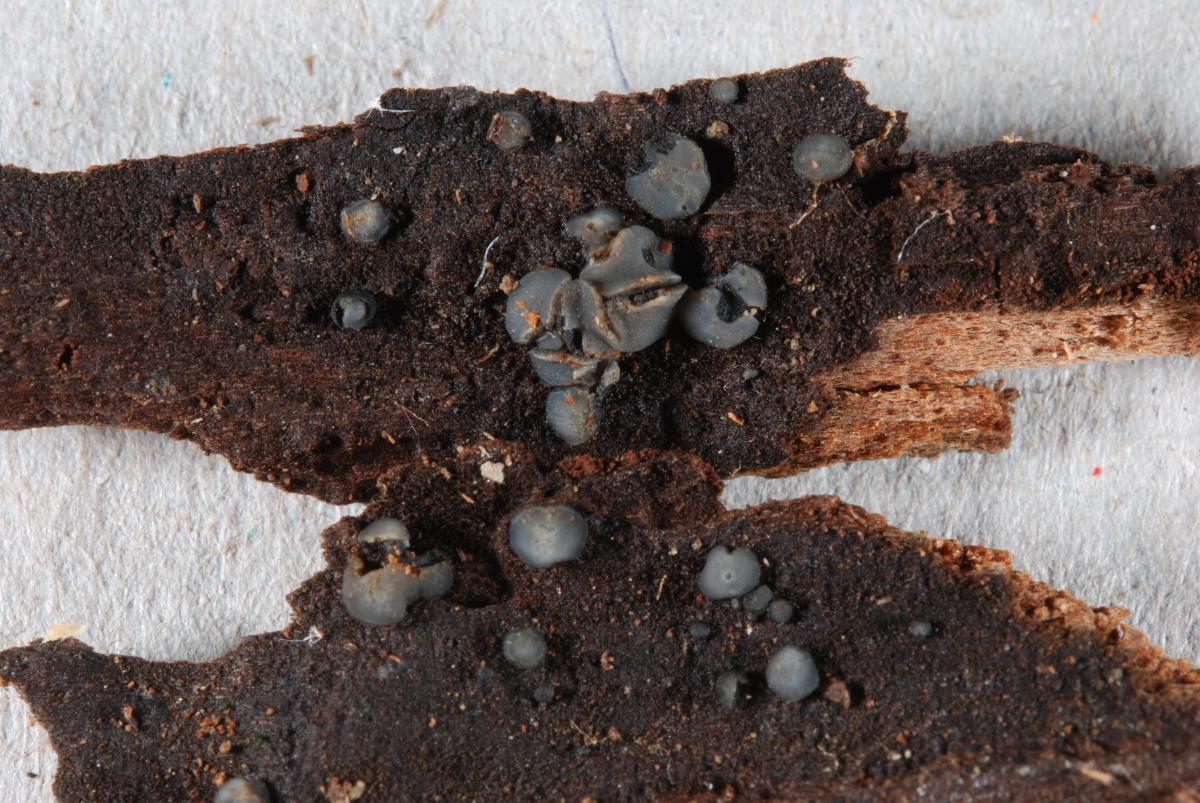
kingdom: Fungi
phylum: Ascomycota
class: Leotiomycetes
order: Helotiales
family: Mollisiaceae
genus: Mollisia
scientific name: Mollisia
